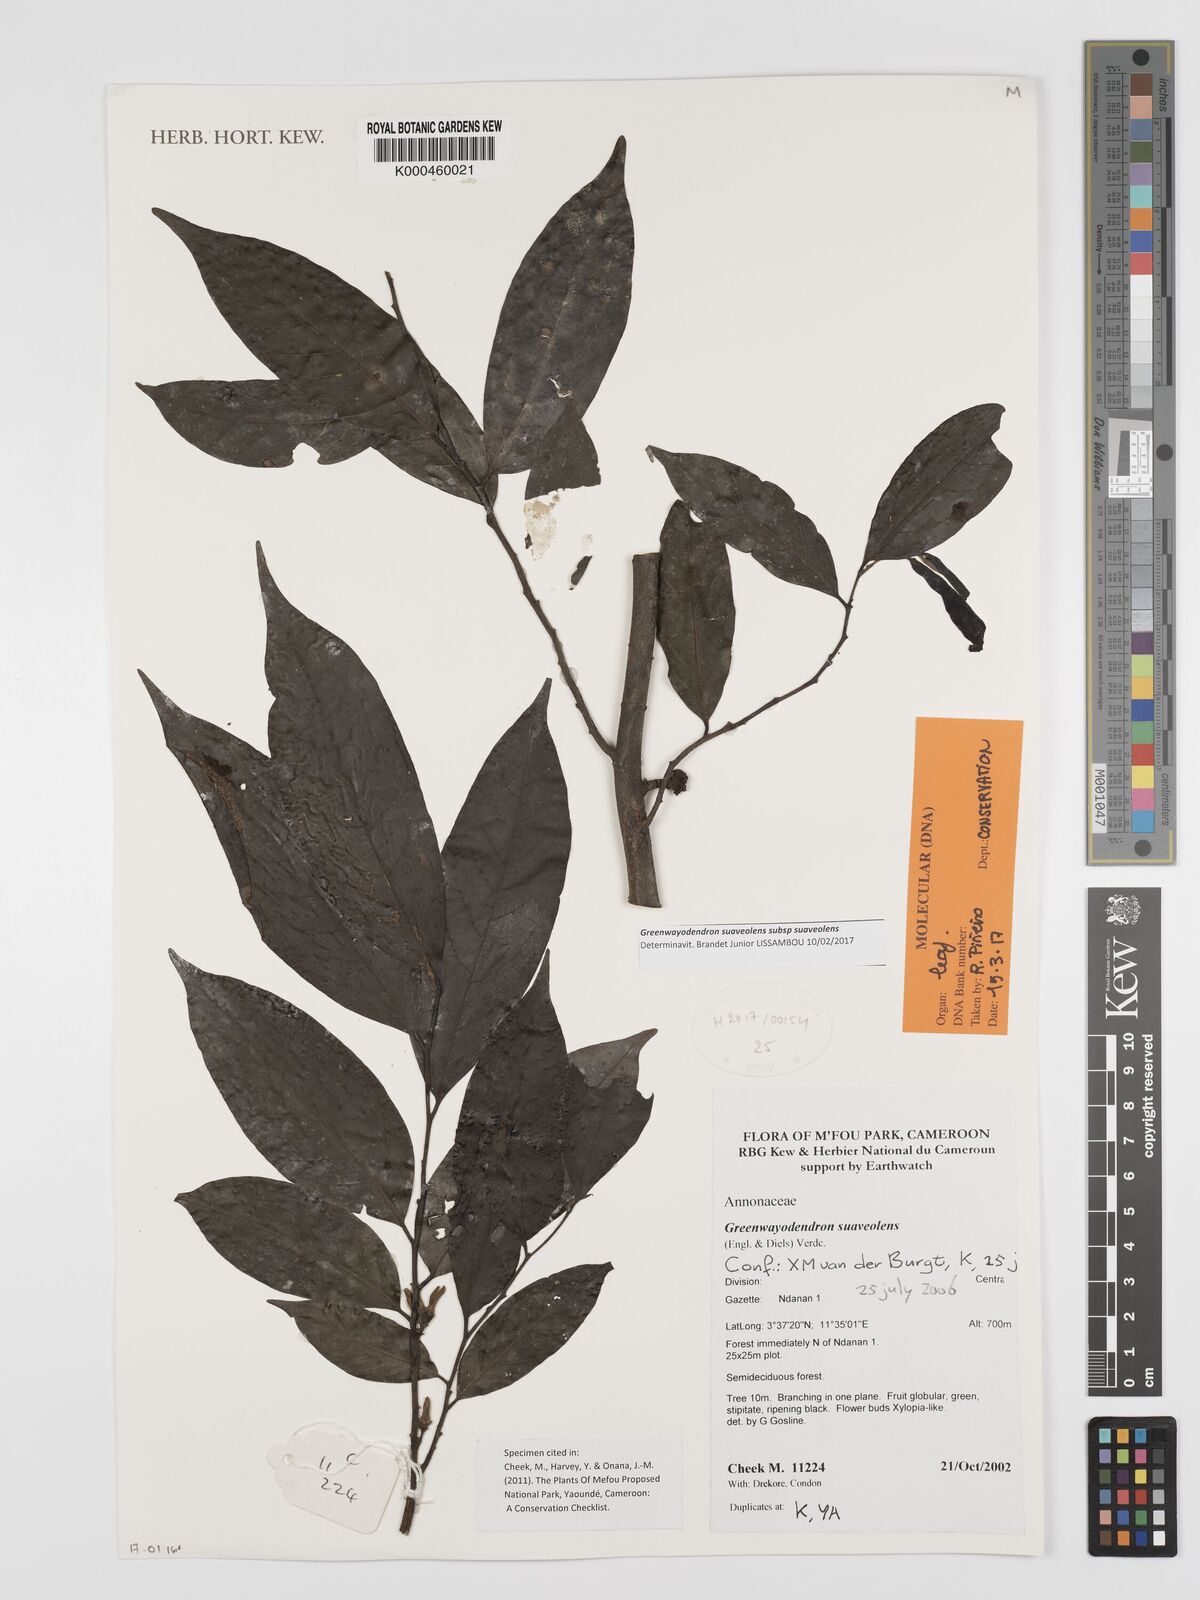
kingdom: Plantae
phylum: Tracheophyta
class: Magnoliopsida
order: Magnoliales
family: Annonaceae
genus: Greenwayodendron
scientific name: Greenwayodendron suaveolens
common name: Molinda
